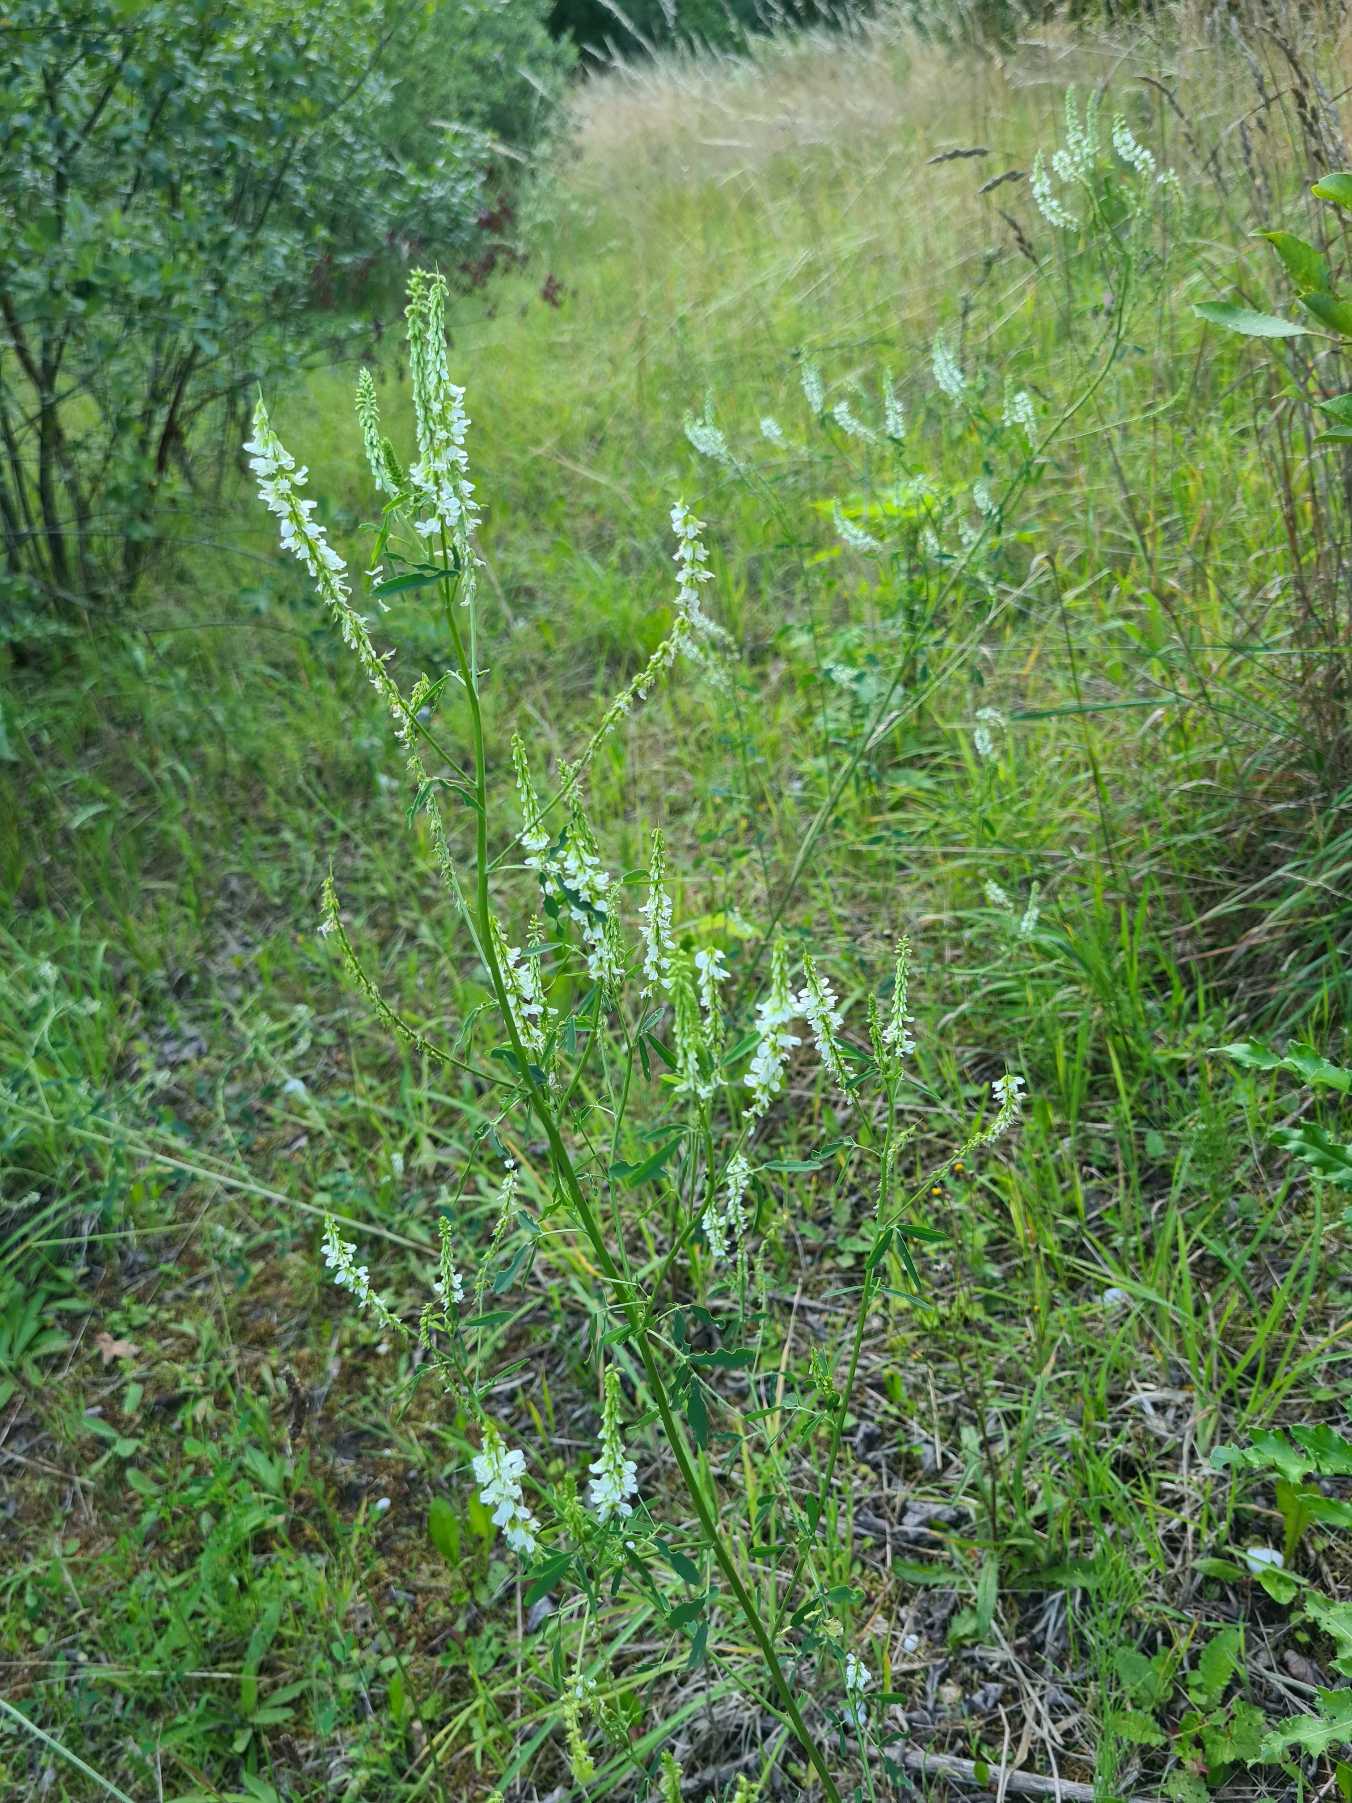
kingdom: Plantae
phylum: Tracheophyta
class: Magnoliopsida
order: Fabales
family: Fabaceae
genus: Melilotus
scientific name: Melilotus albus
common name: Hvid stenkløver
